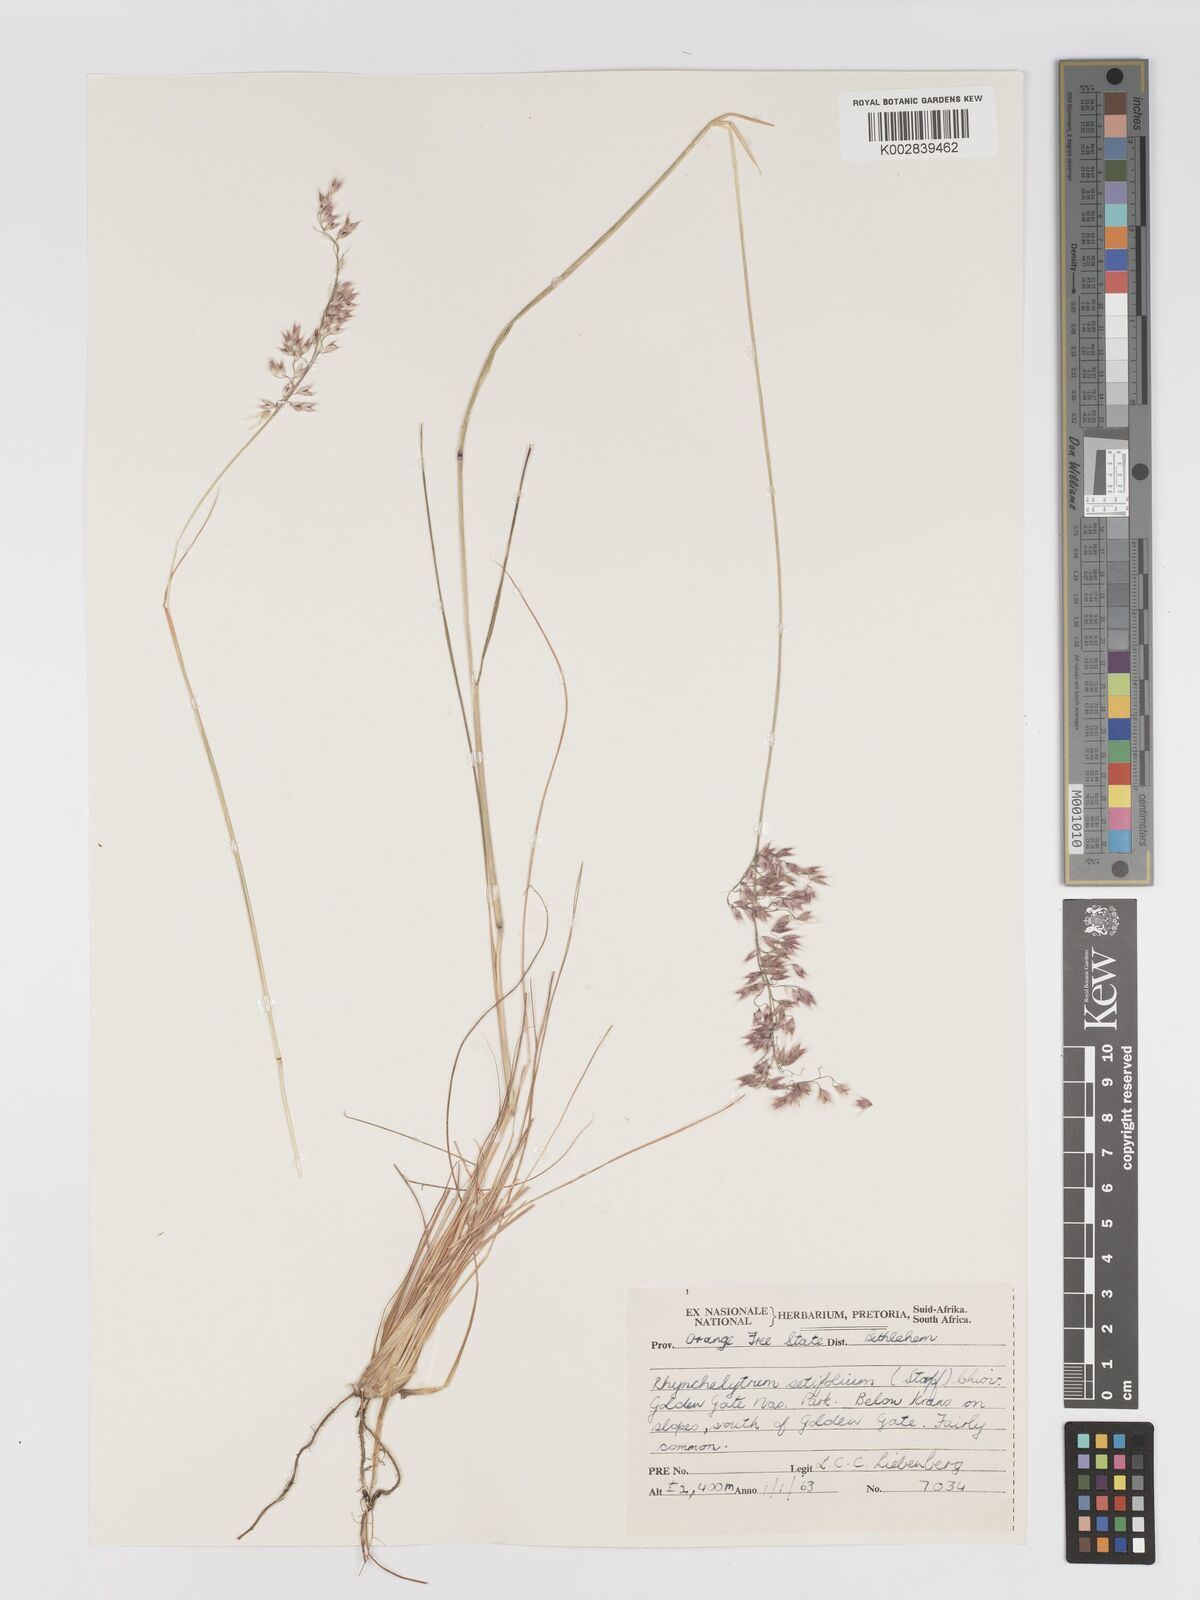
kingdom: Plantae
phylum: Tracheophyta
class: Liliopsida
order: Poales
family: Poaceae
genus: Melinis
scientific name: Melinis nerviglumis
